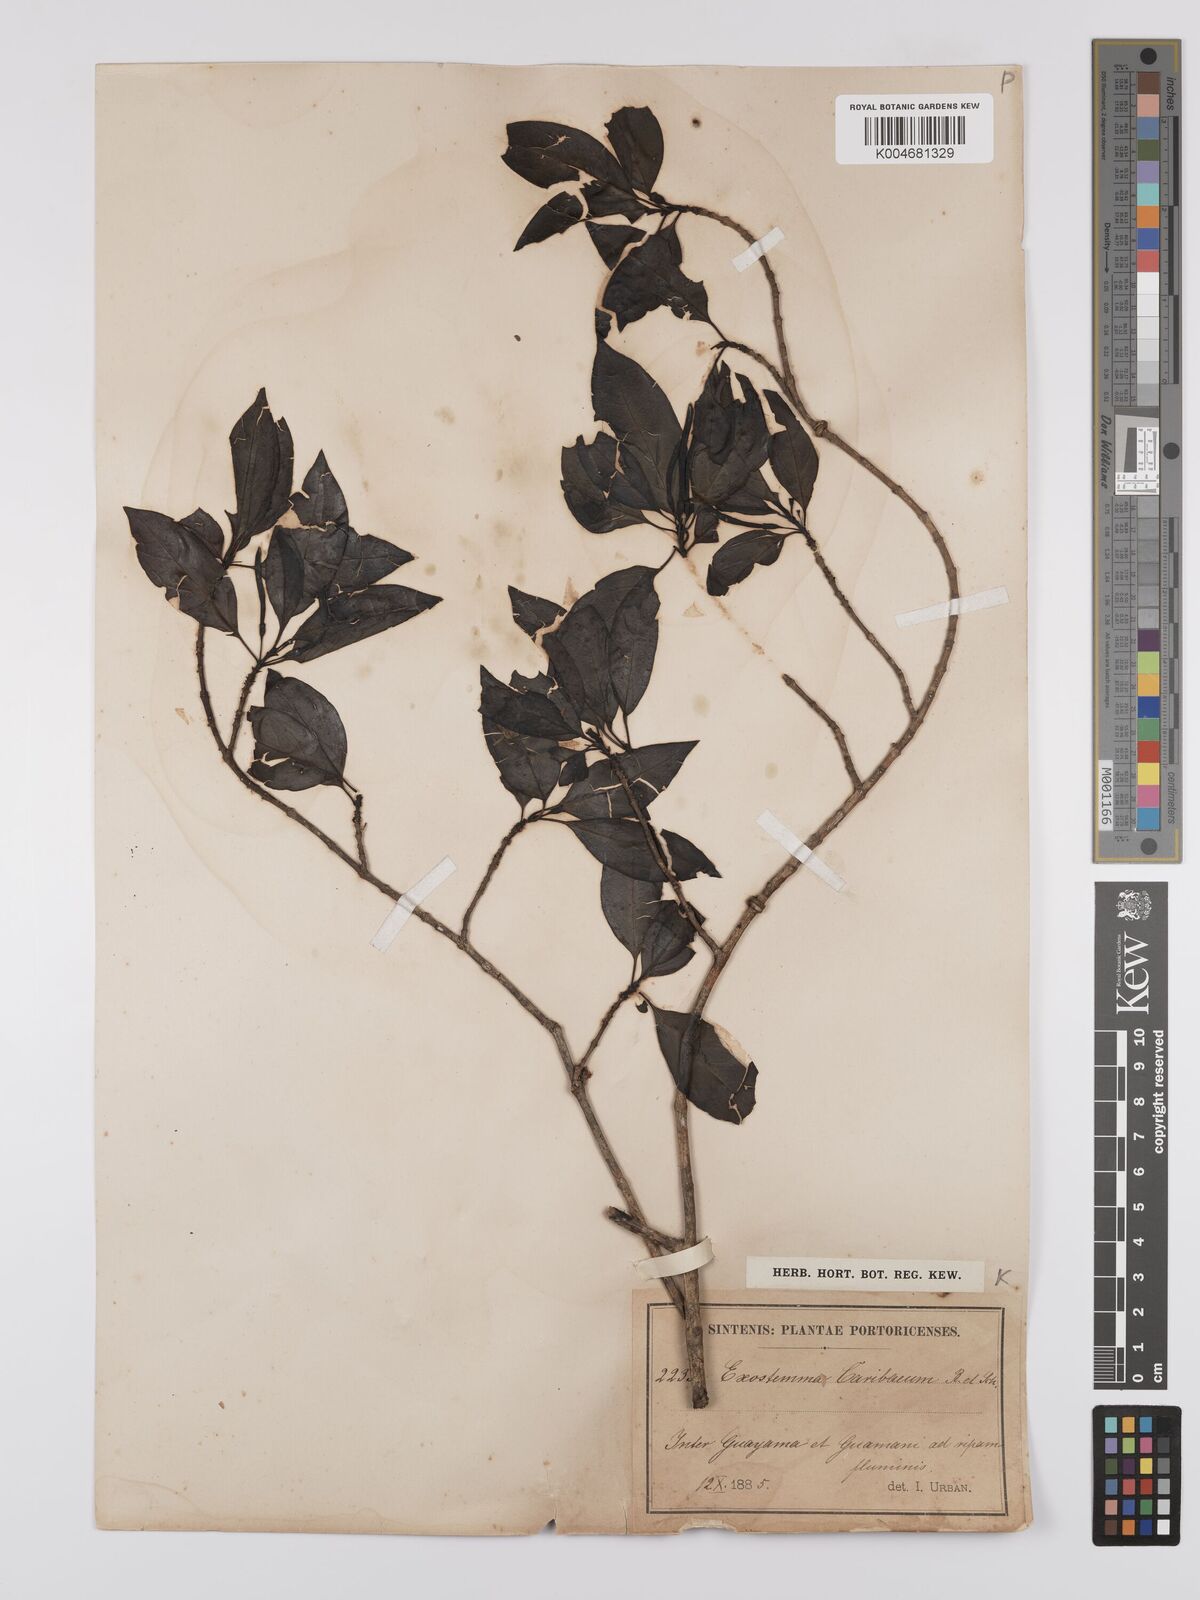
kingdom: Plantae
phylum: Tracheophyta
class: Magnoliopsida
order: Gentianales
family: Rubiaceae
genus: Exostema
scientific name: Exostema caribaeum
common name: Princewood
